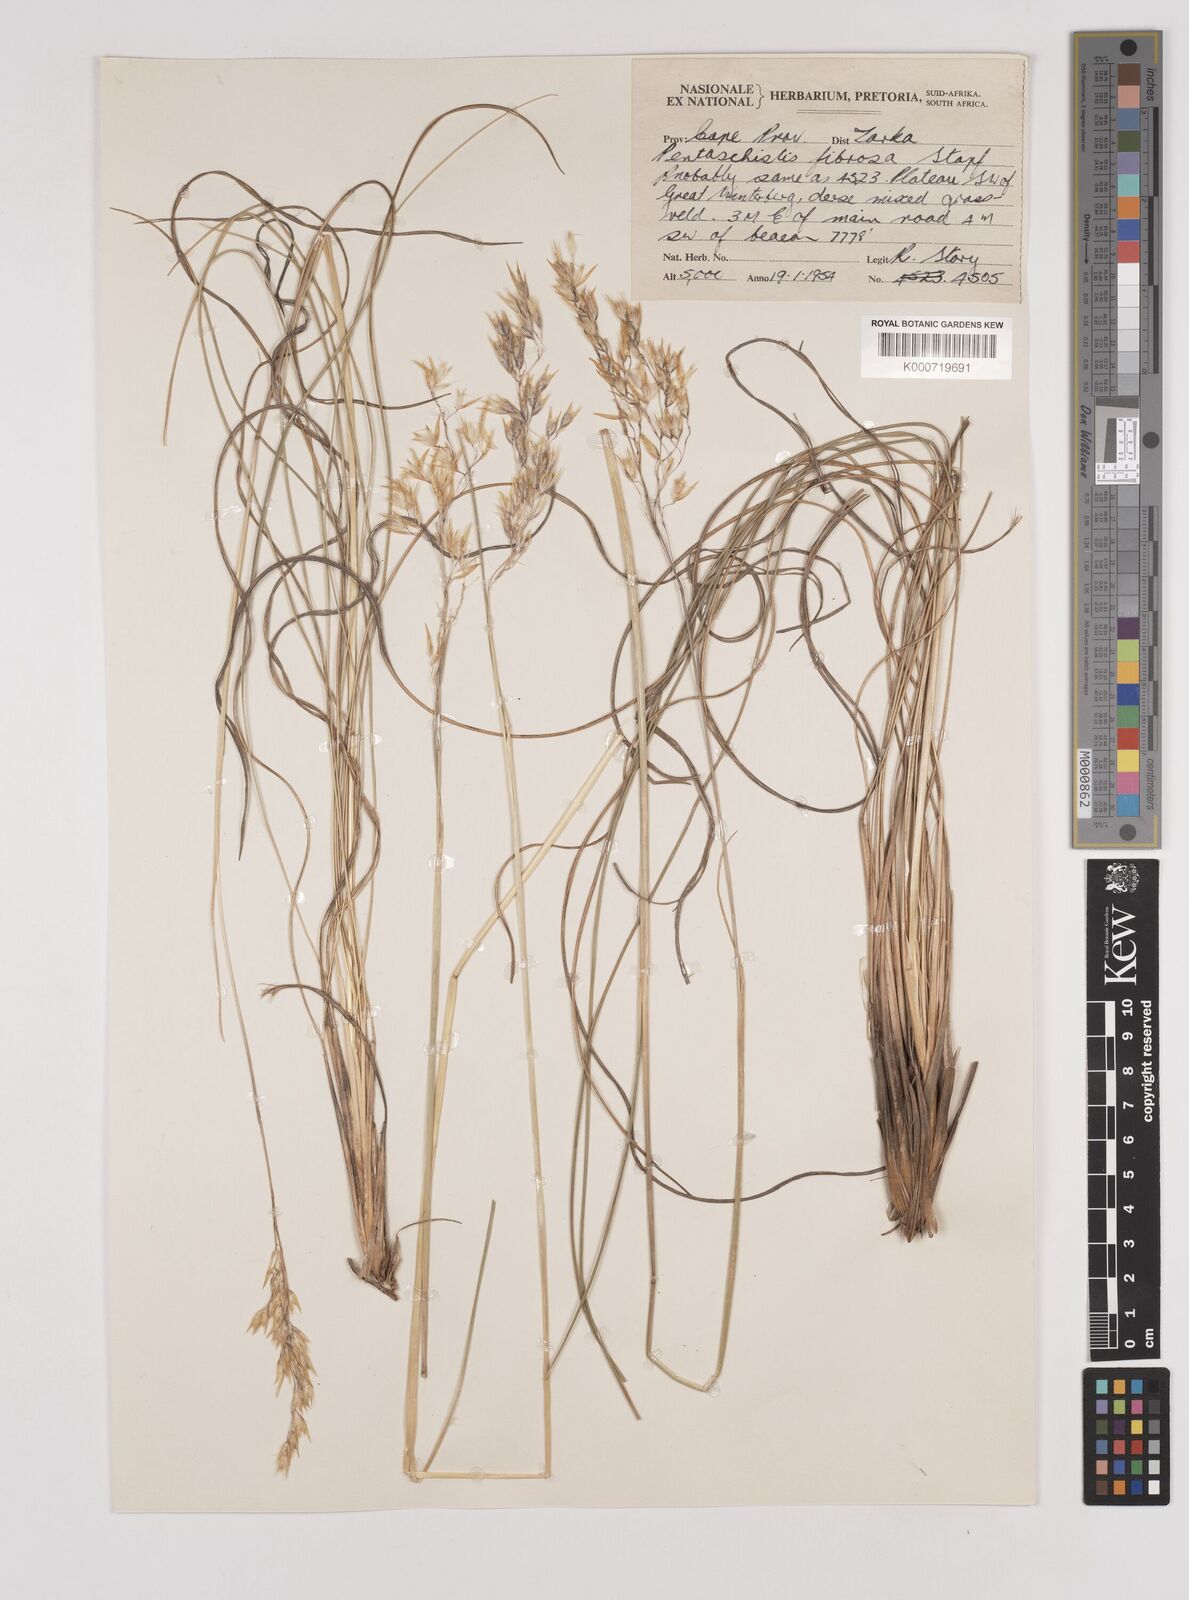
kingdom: Plantae
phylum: Tracheophyta
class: Liliopsida
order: Poales
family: Poaceae
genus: Pentameris
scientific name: Pentameris tysonii
